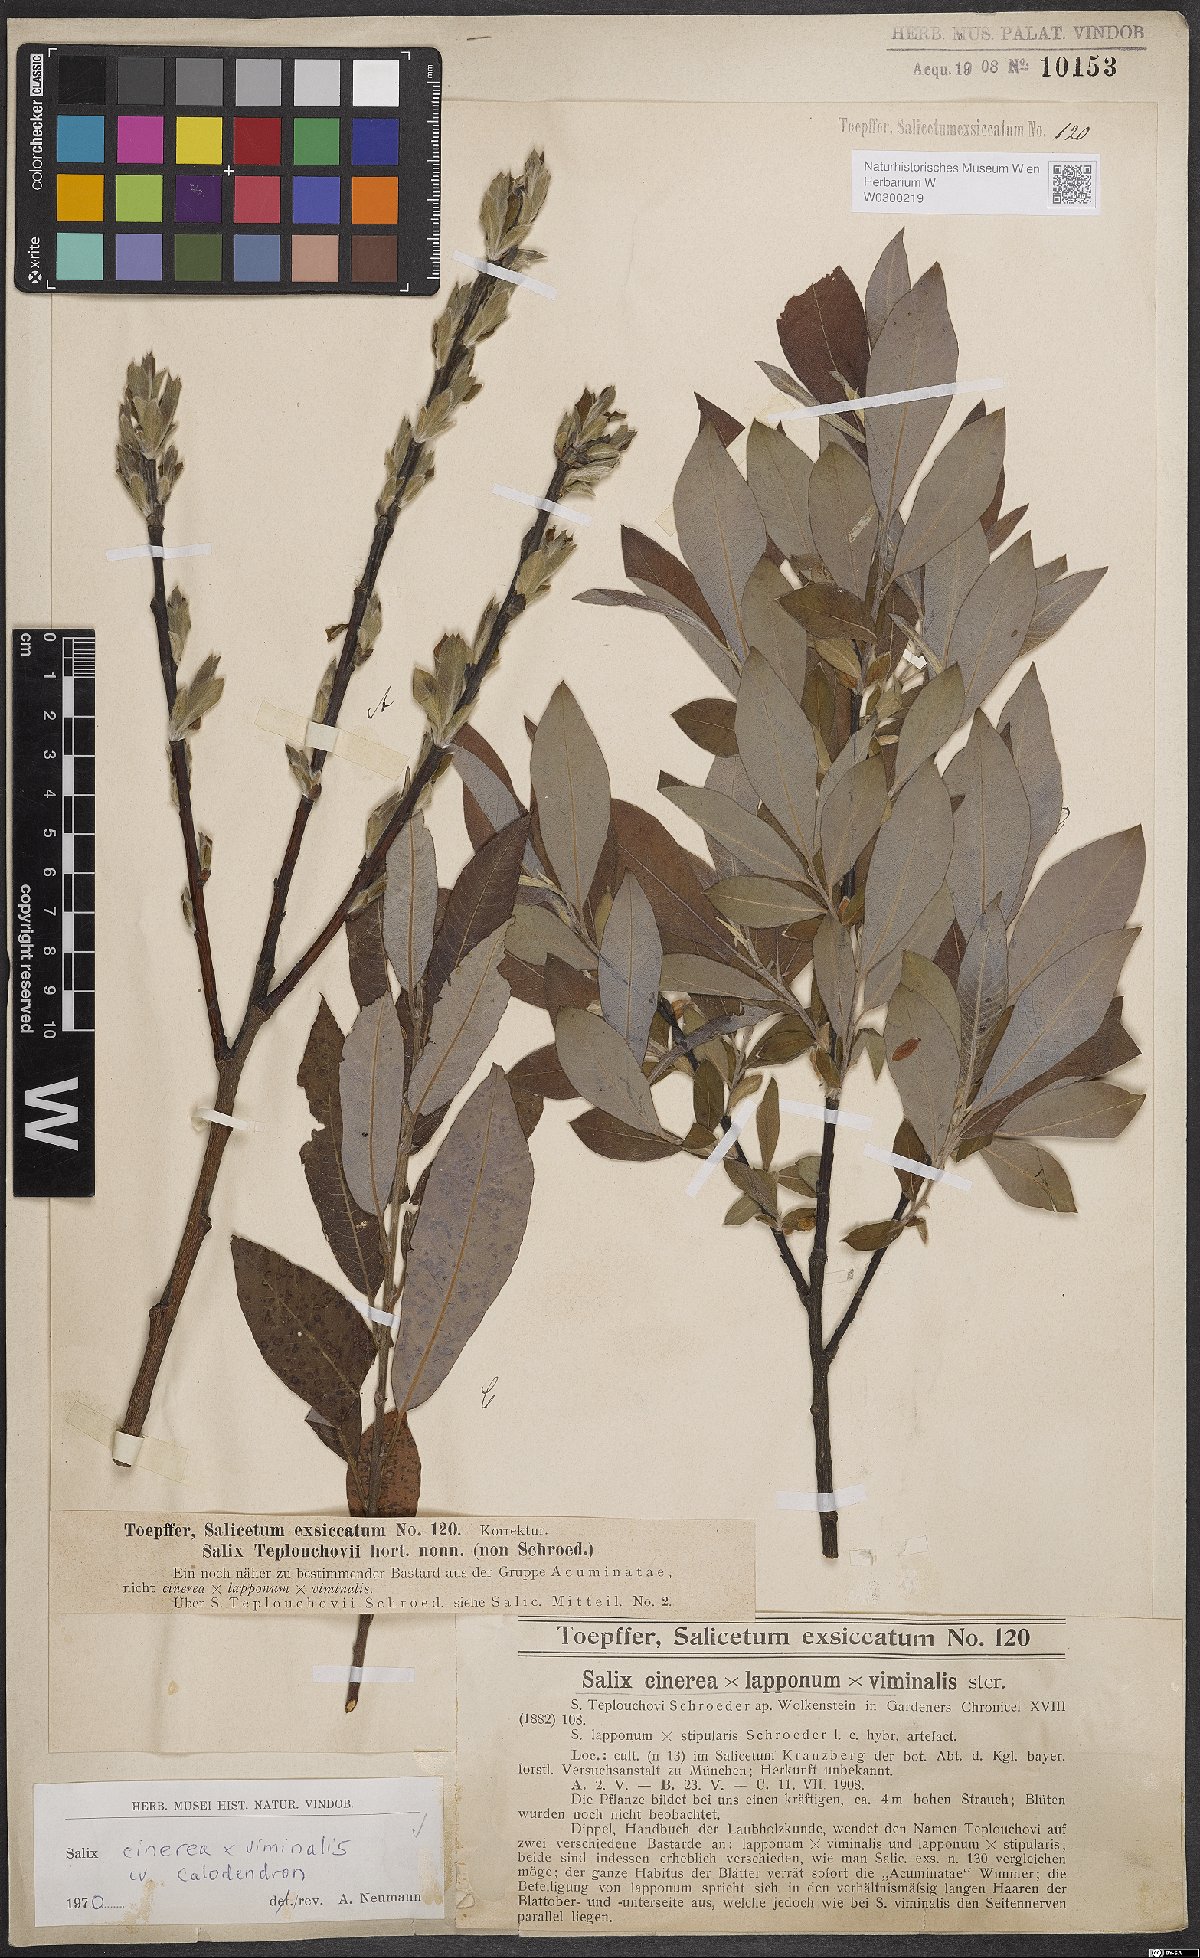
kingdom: Plantae
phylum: Tracheophyta
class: Magnoliopsida
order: Malpighiales
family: Salicaceae
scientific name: Salicaceae
